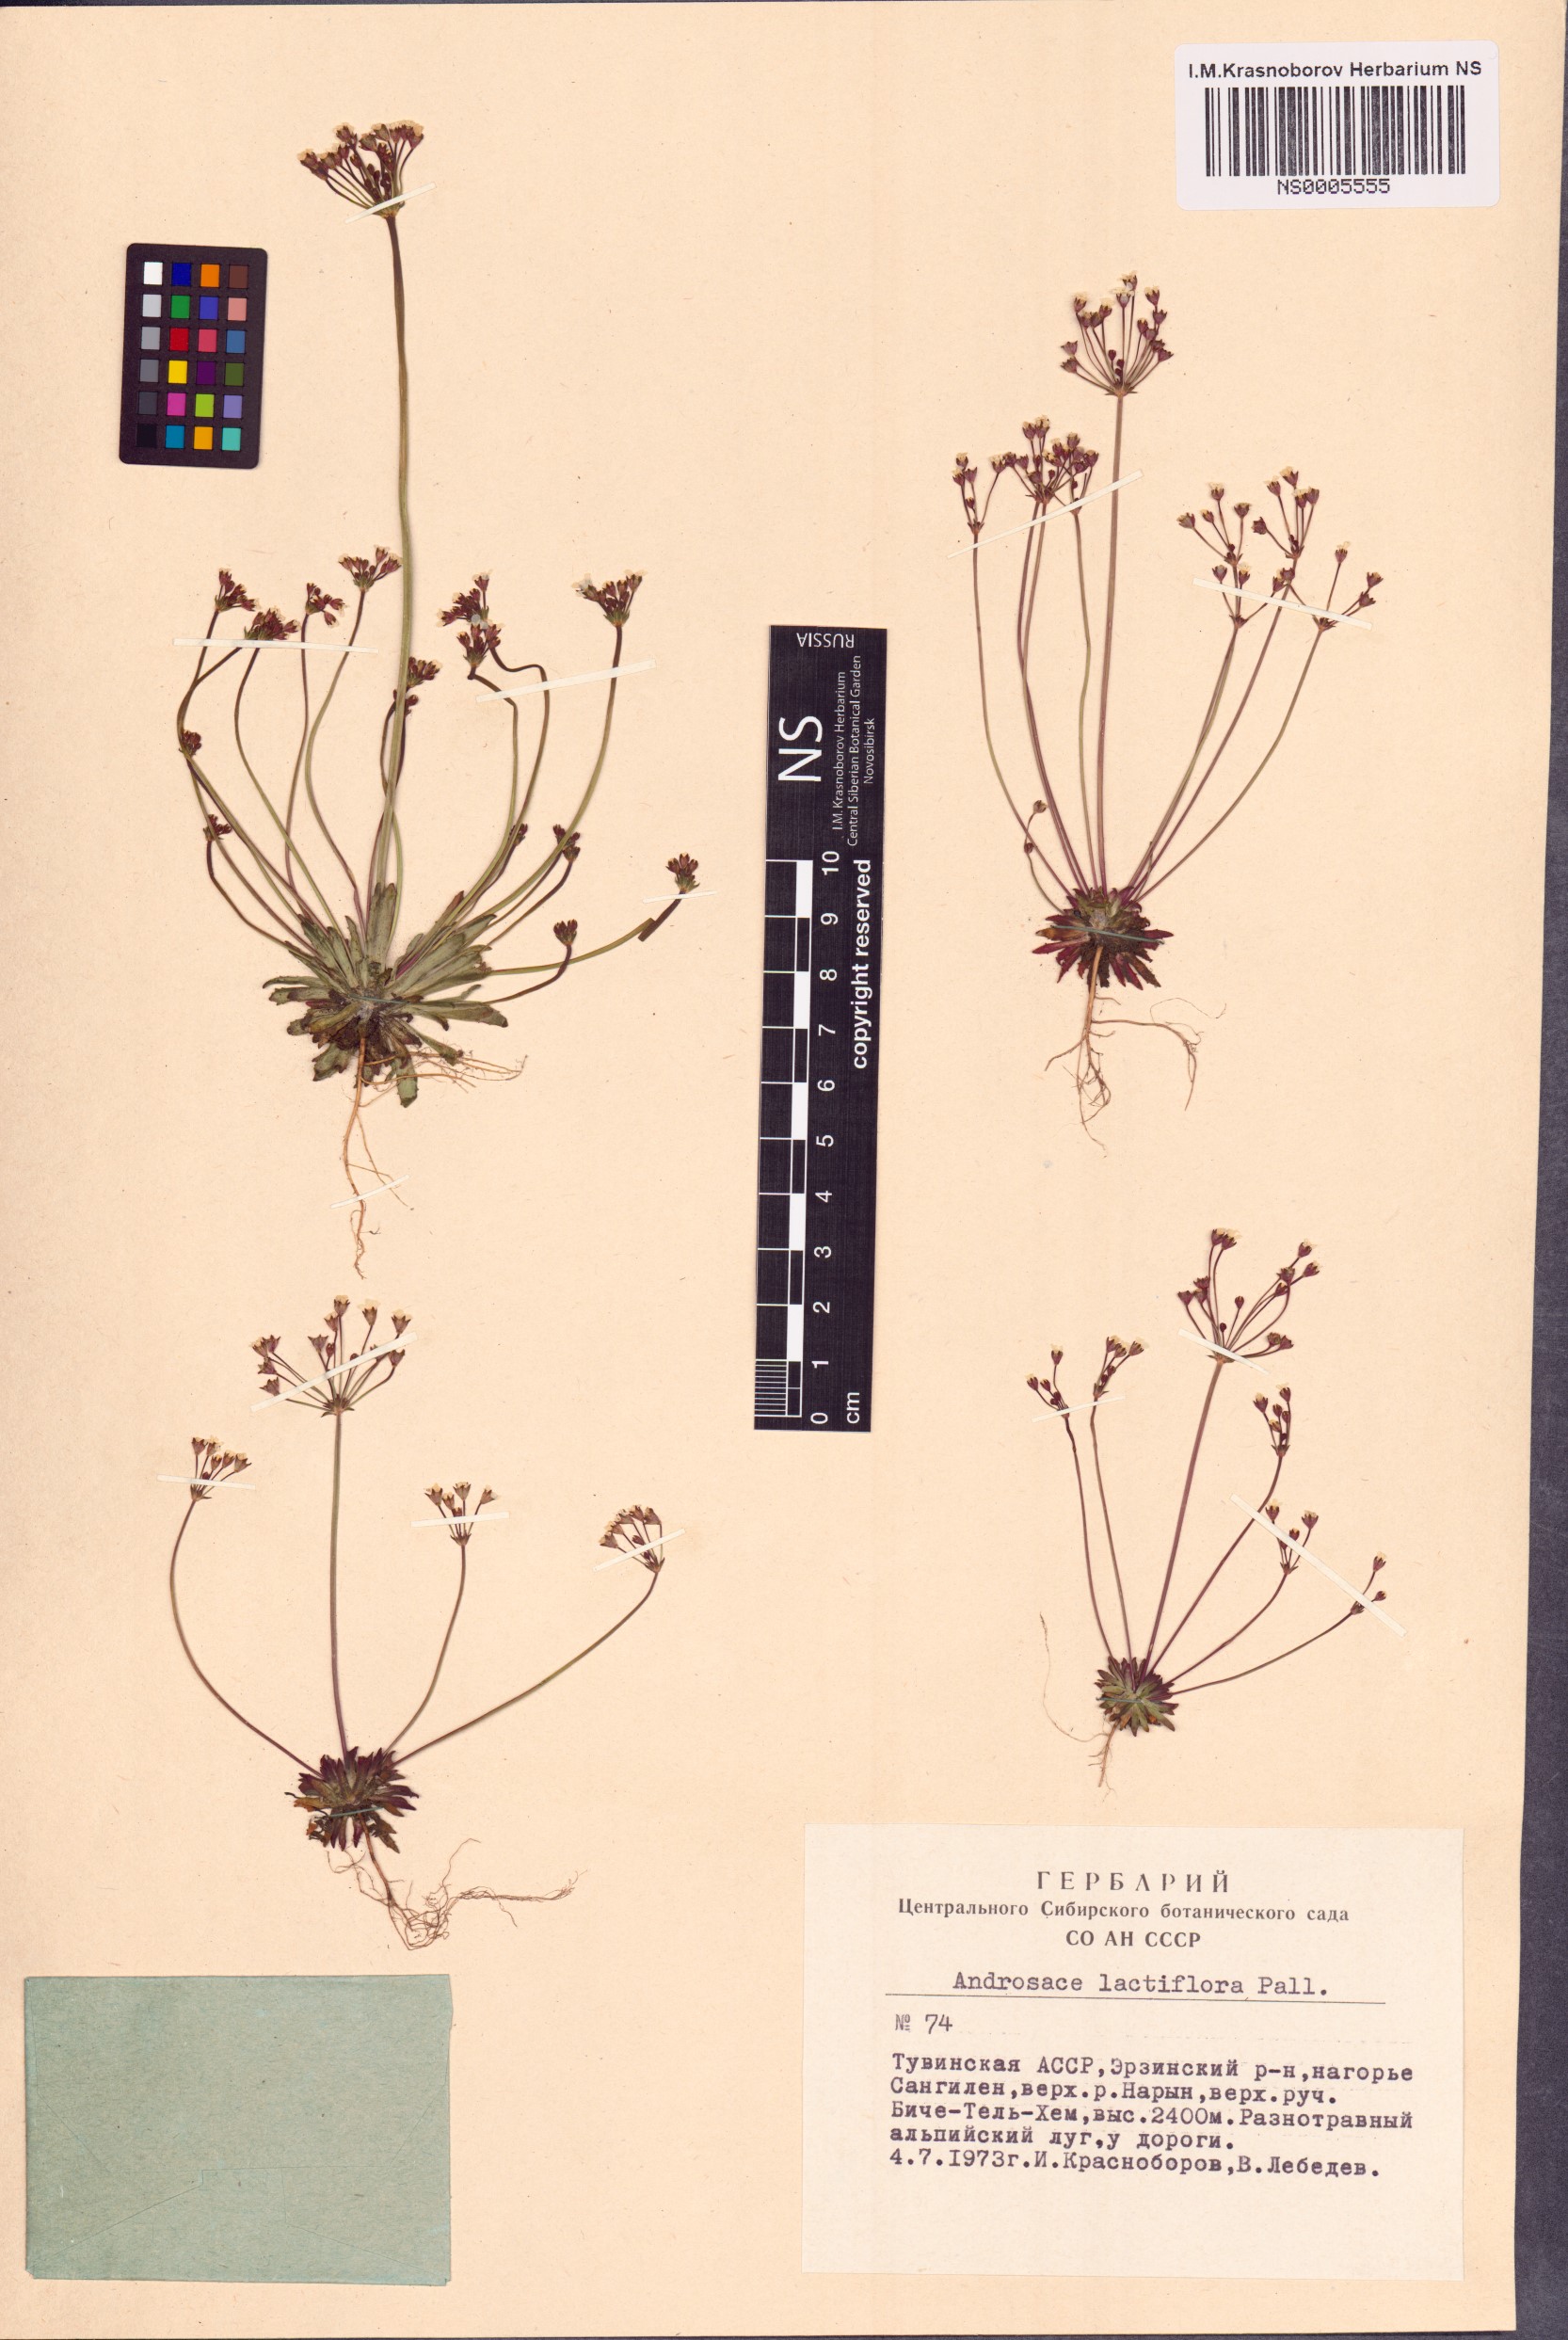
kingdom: Plantae
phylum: Tracheophyta
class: Magnoliopsida
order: Ericales
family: Primulaceae
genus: Androsace
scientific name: Androsace lactiflora
